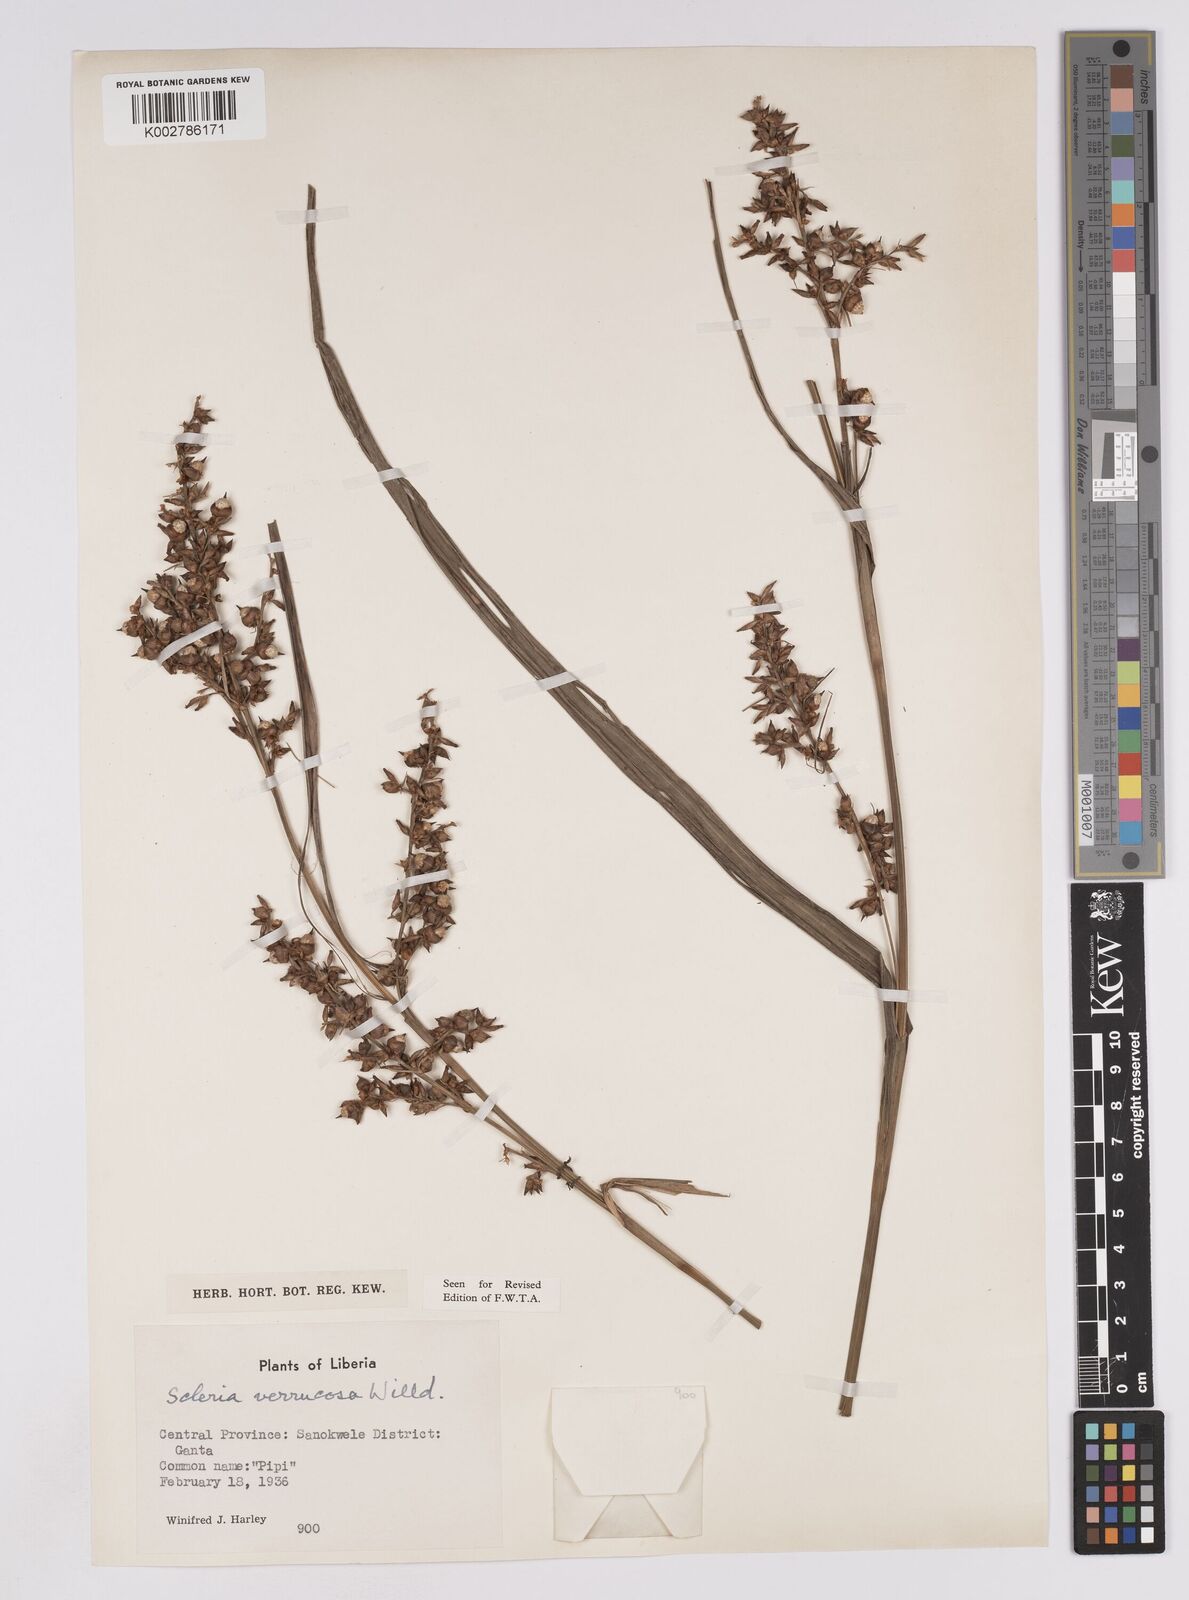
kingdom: Plantae
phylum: Tracheophyta
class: Liliopsida
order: Poales
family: Cyperaceae
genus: Scleria
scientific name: Scleria verrucosa
